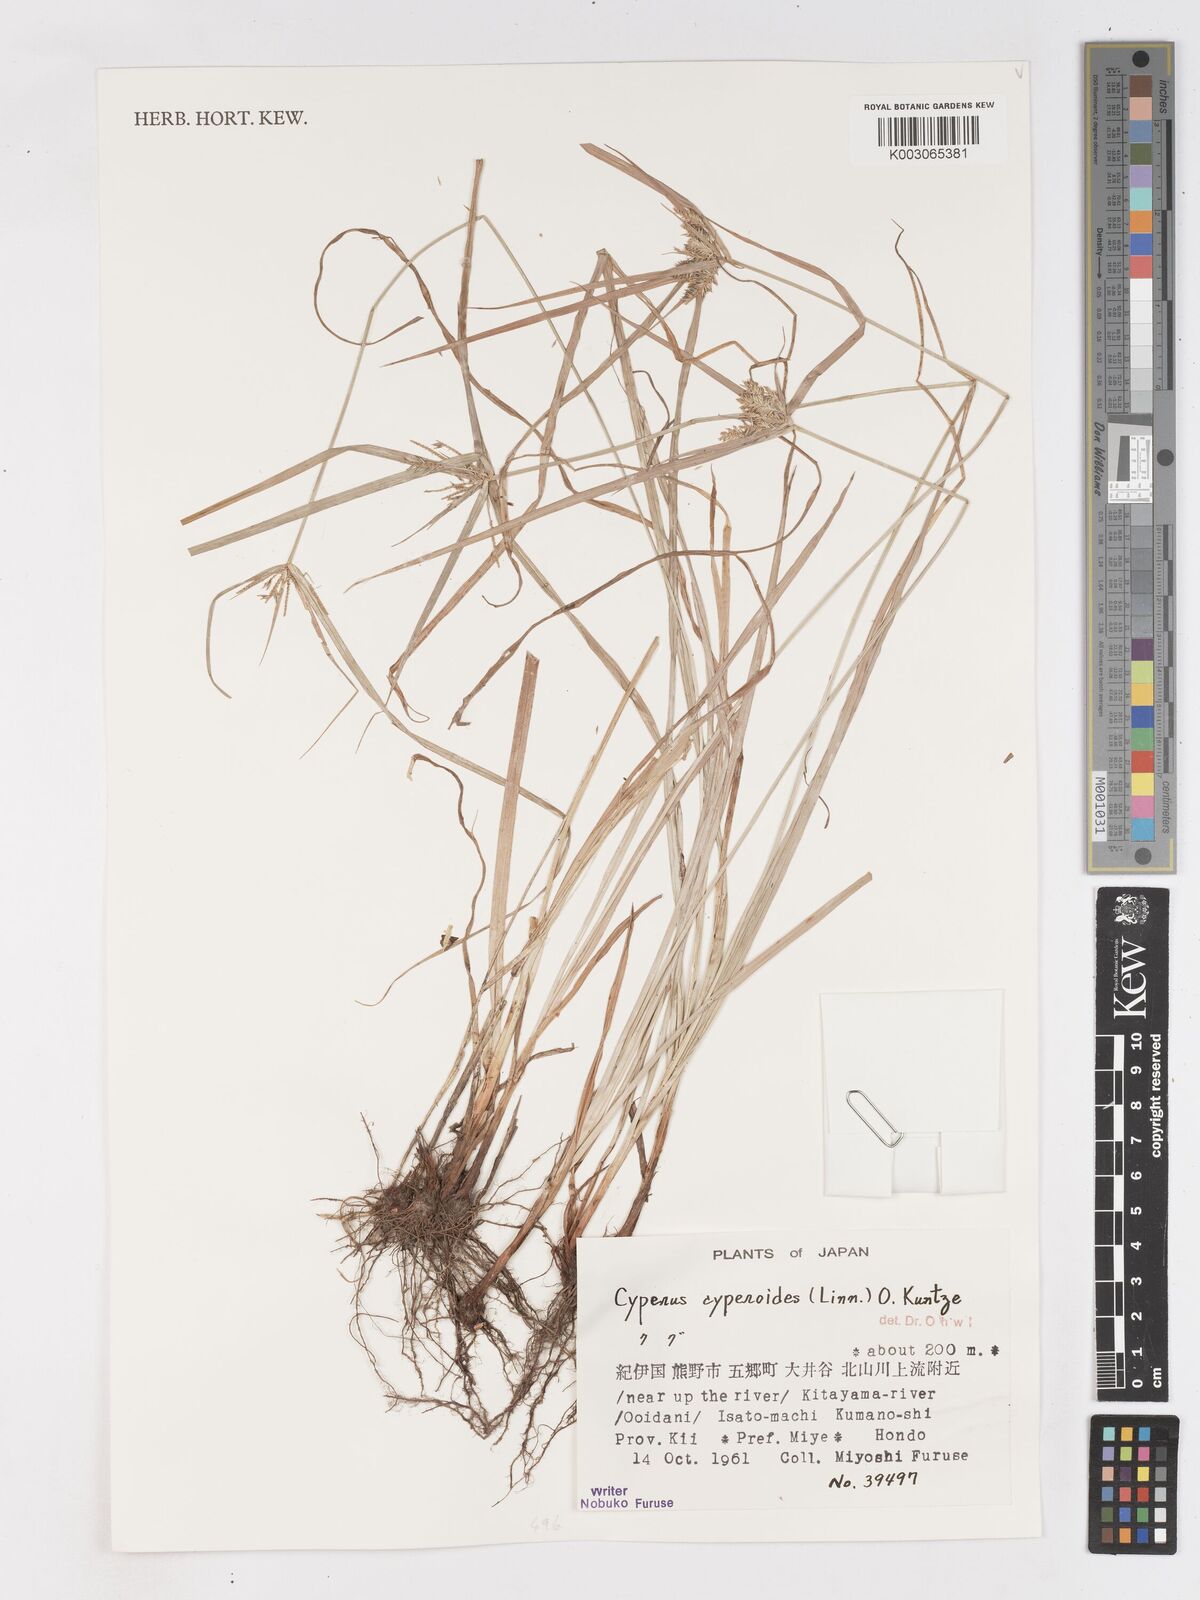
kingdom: Plantae
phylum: Tracheophyta
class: Liliopsida
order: Poales
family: Cyperaceae
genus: Cyperus
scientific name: Cyperus cyperoides
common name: Pacific island flat sedge
